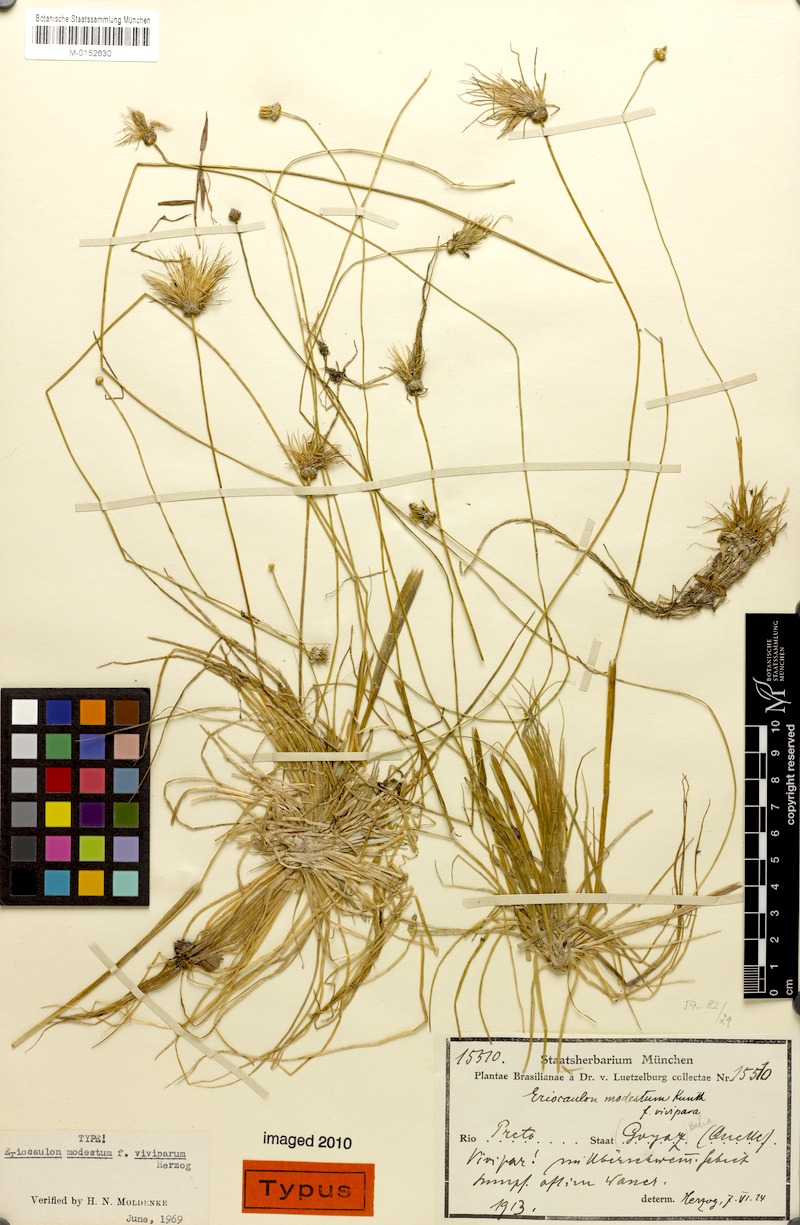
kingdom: Plantae
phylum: Tracheophyta
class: Liliopsida
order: Poales
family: Eriocaulaceae
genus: Eriocaulon
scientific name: Eriocaulon modestum
